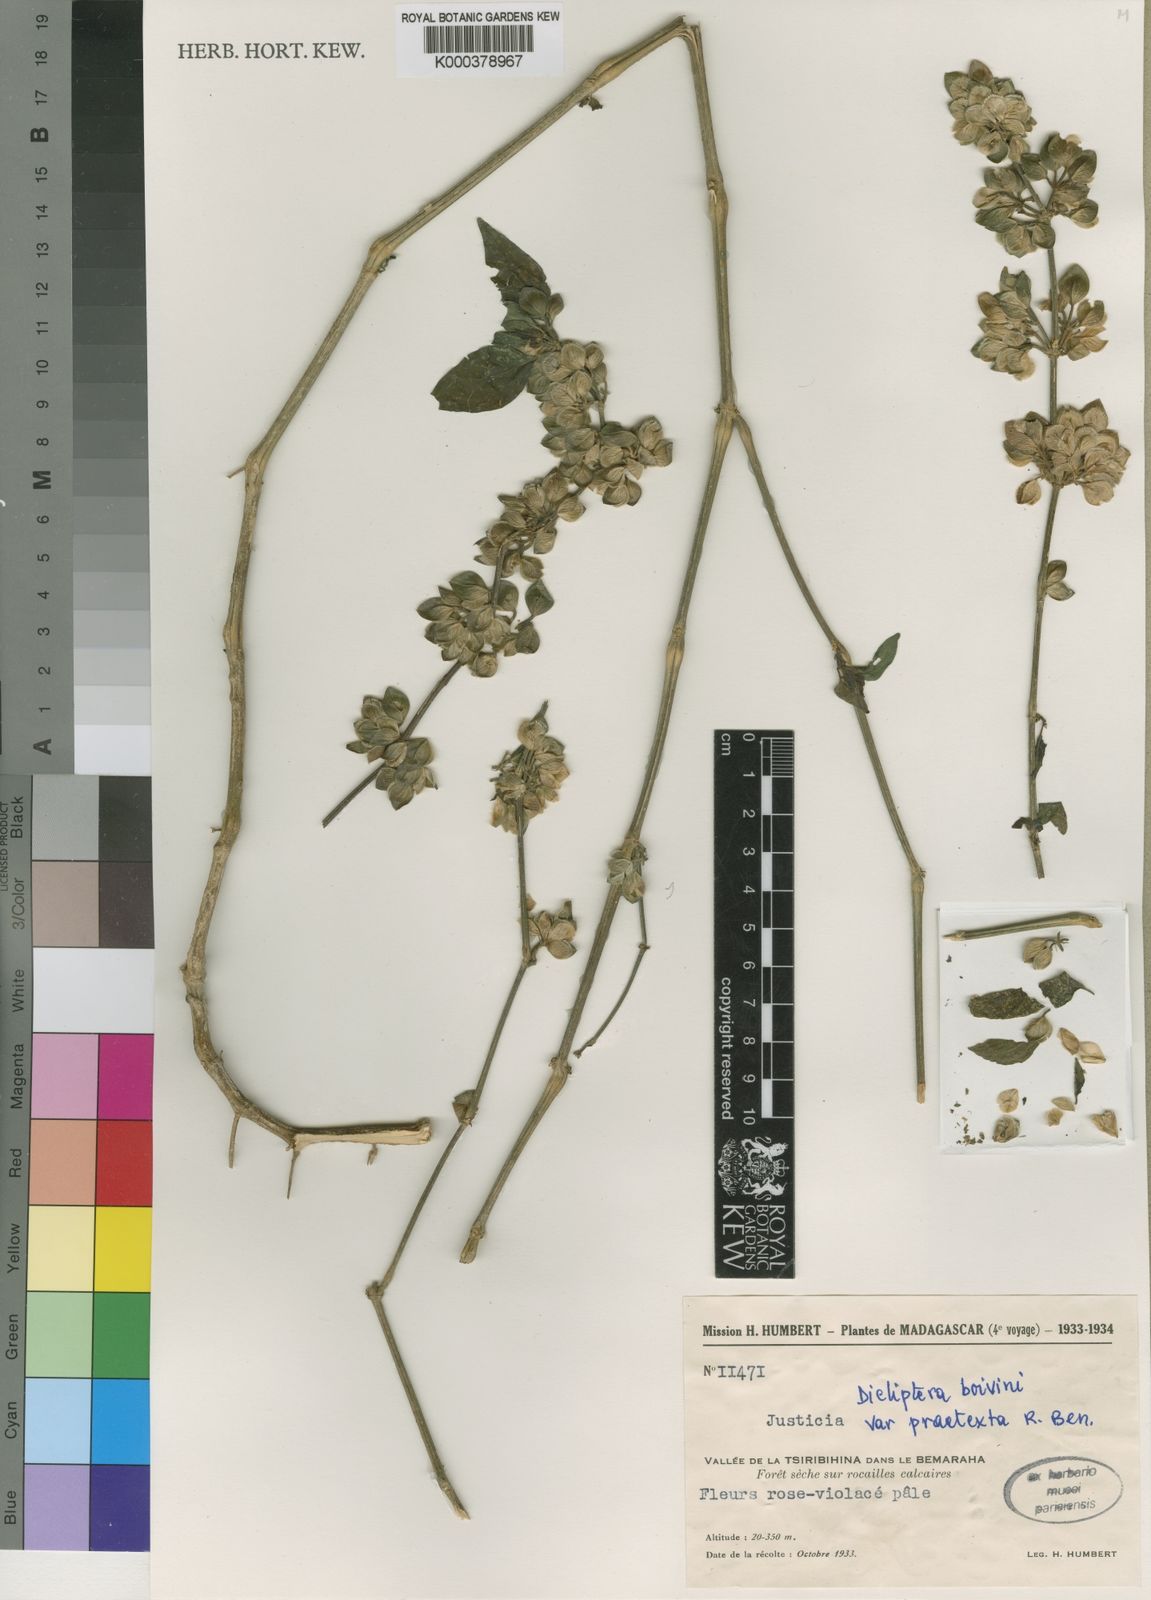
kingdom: Plantae
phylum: Tracheophyta
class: Magnoliopsida
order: Lamiales
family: Acanthaceae
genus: Dicliptera
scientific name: Dicliptera
